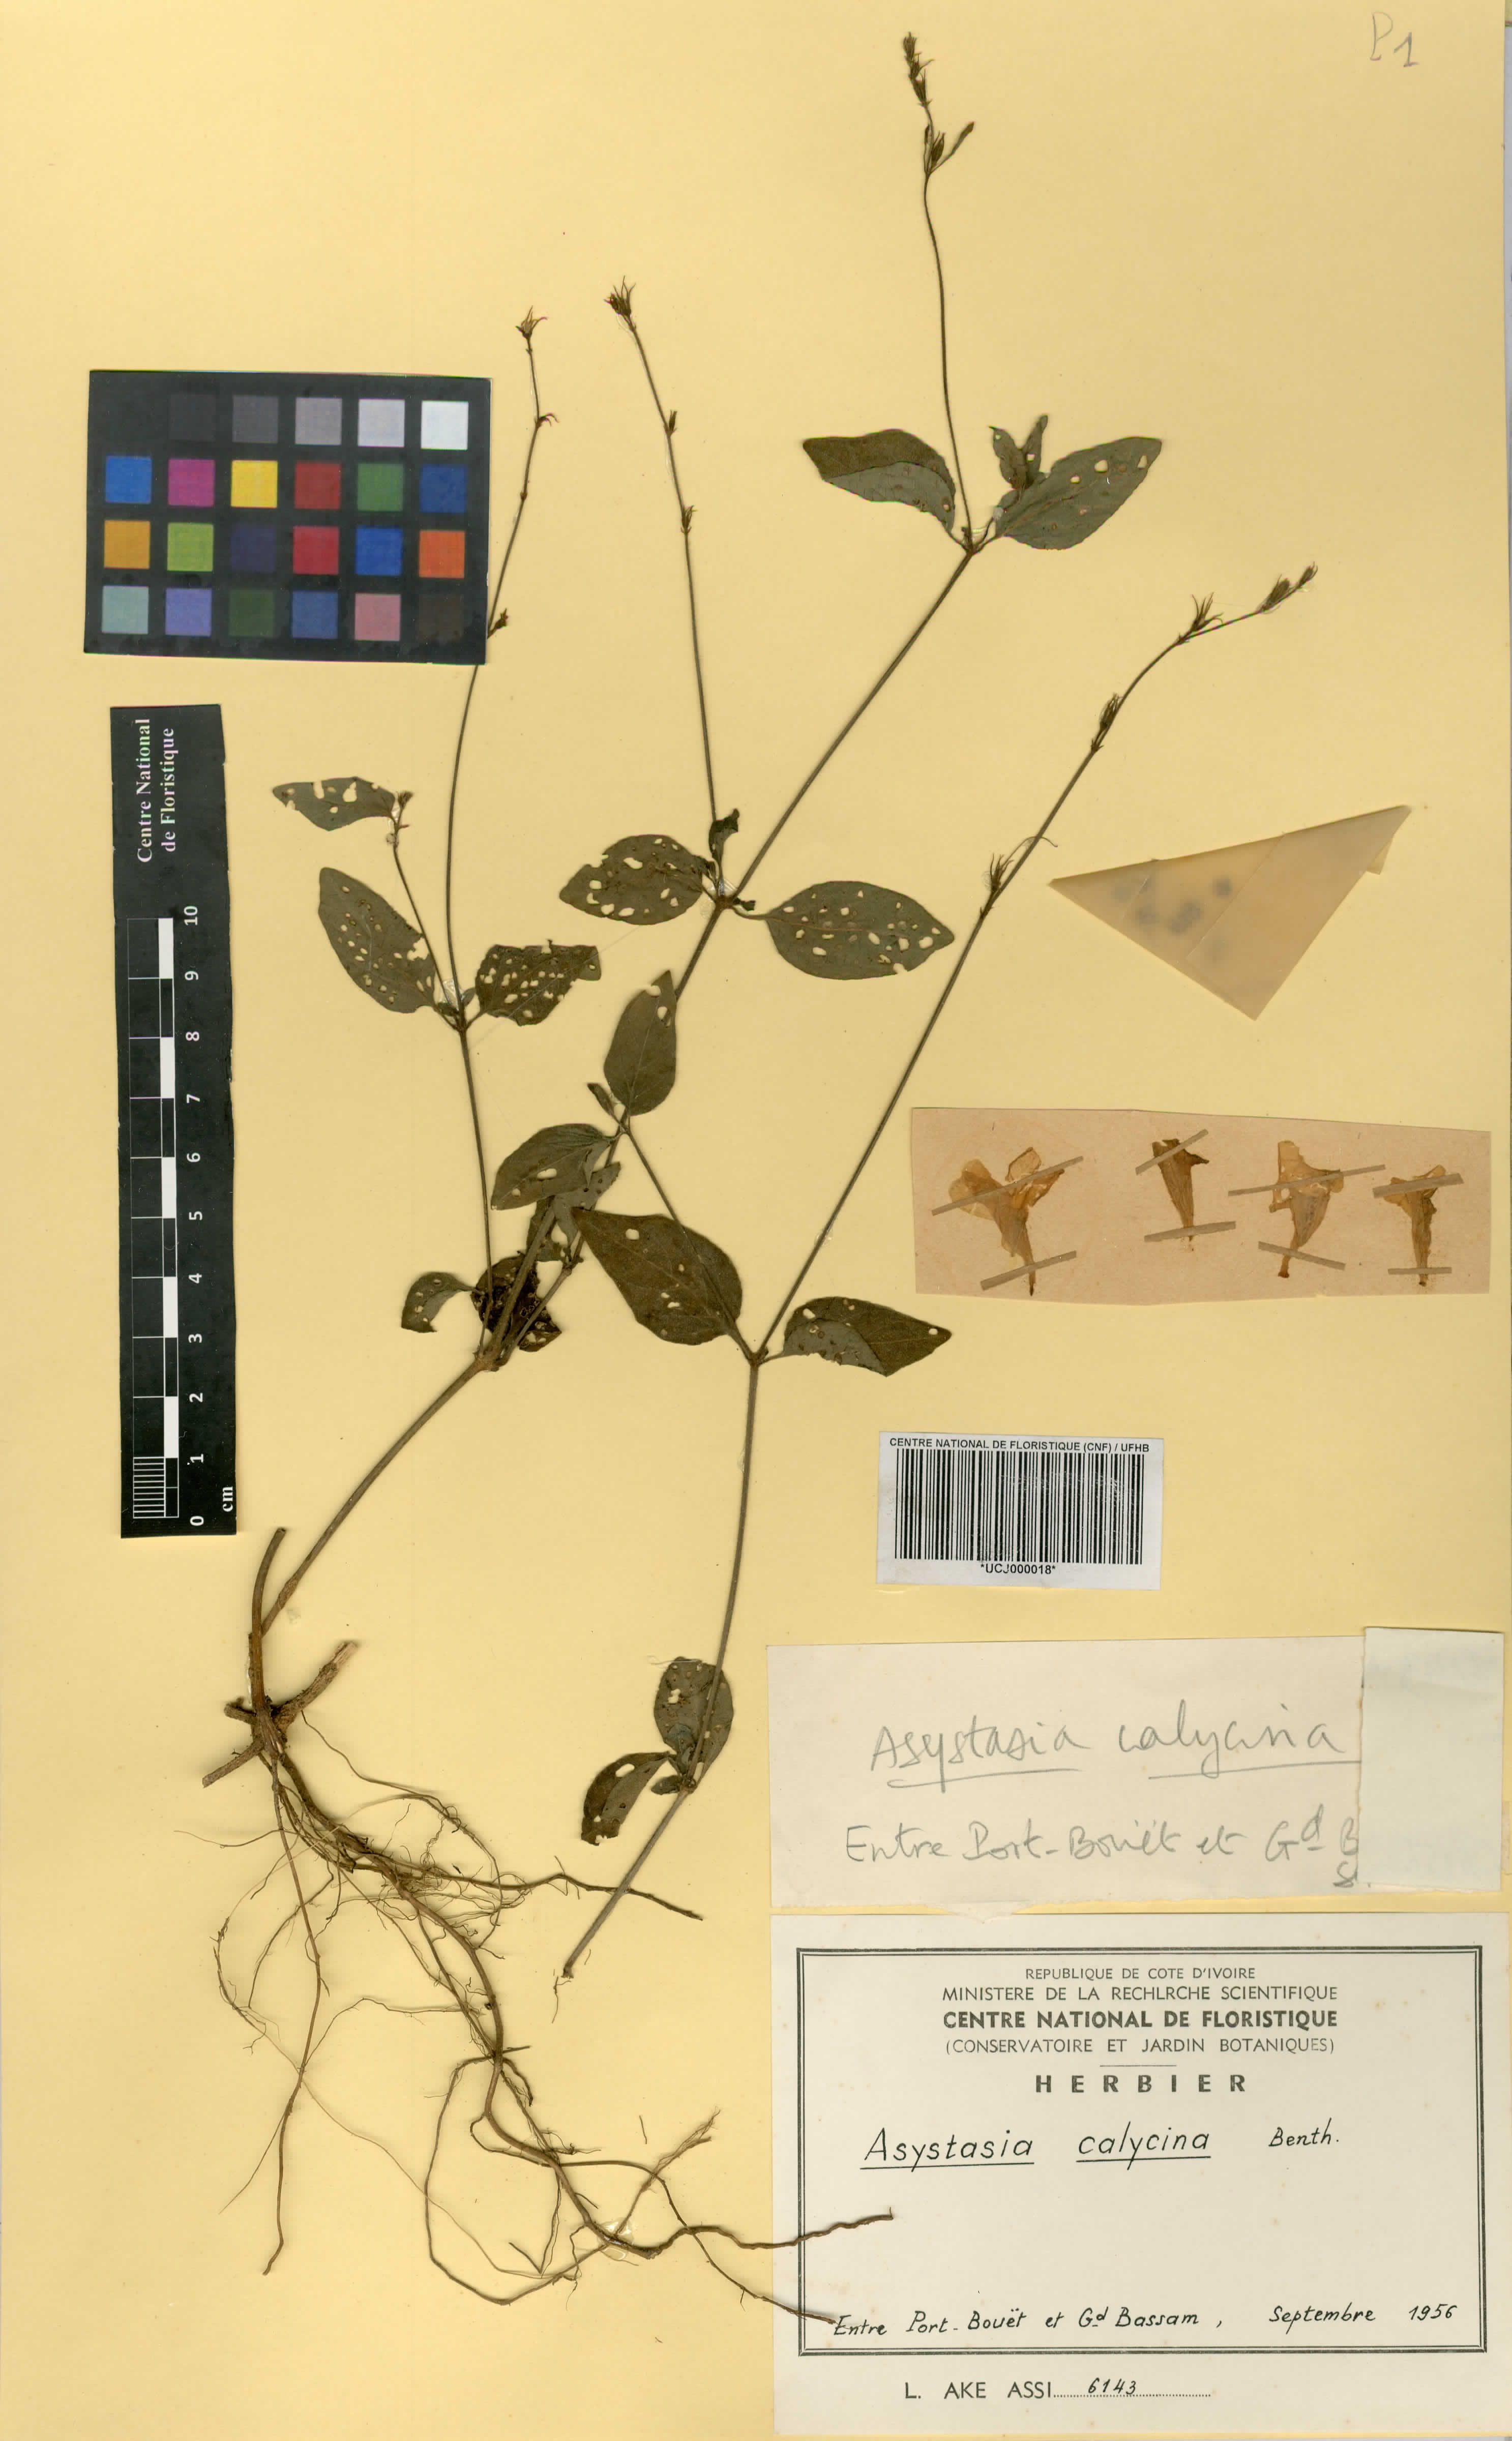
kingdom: Plantae
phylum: Tracheophyta
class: Magnoliopsida
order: Lamiales
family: Acanthaceae
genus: Asystasia
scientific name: Asystasia buettneri
